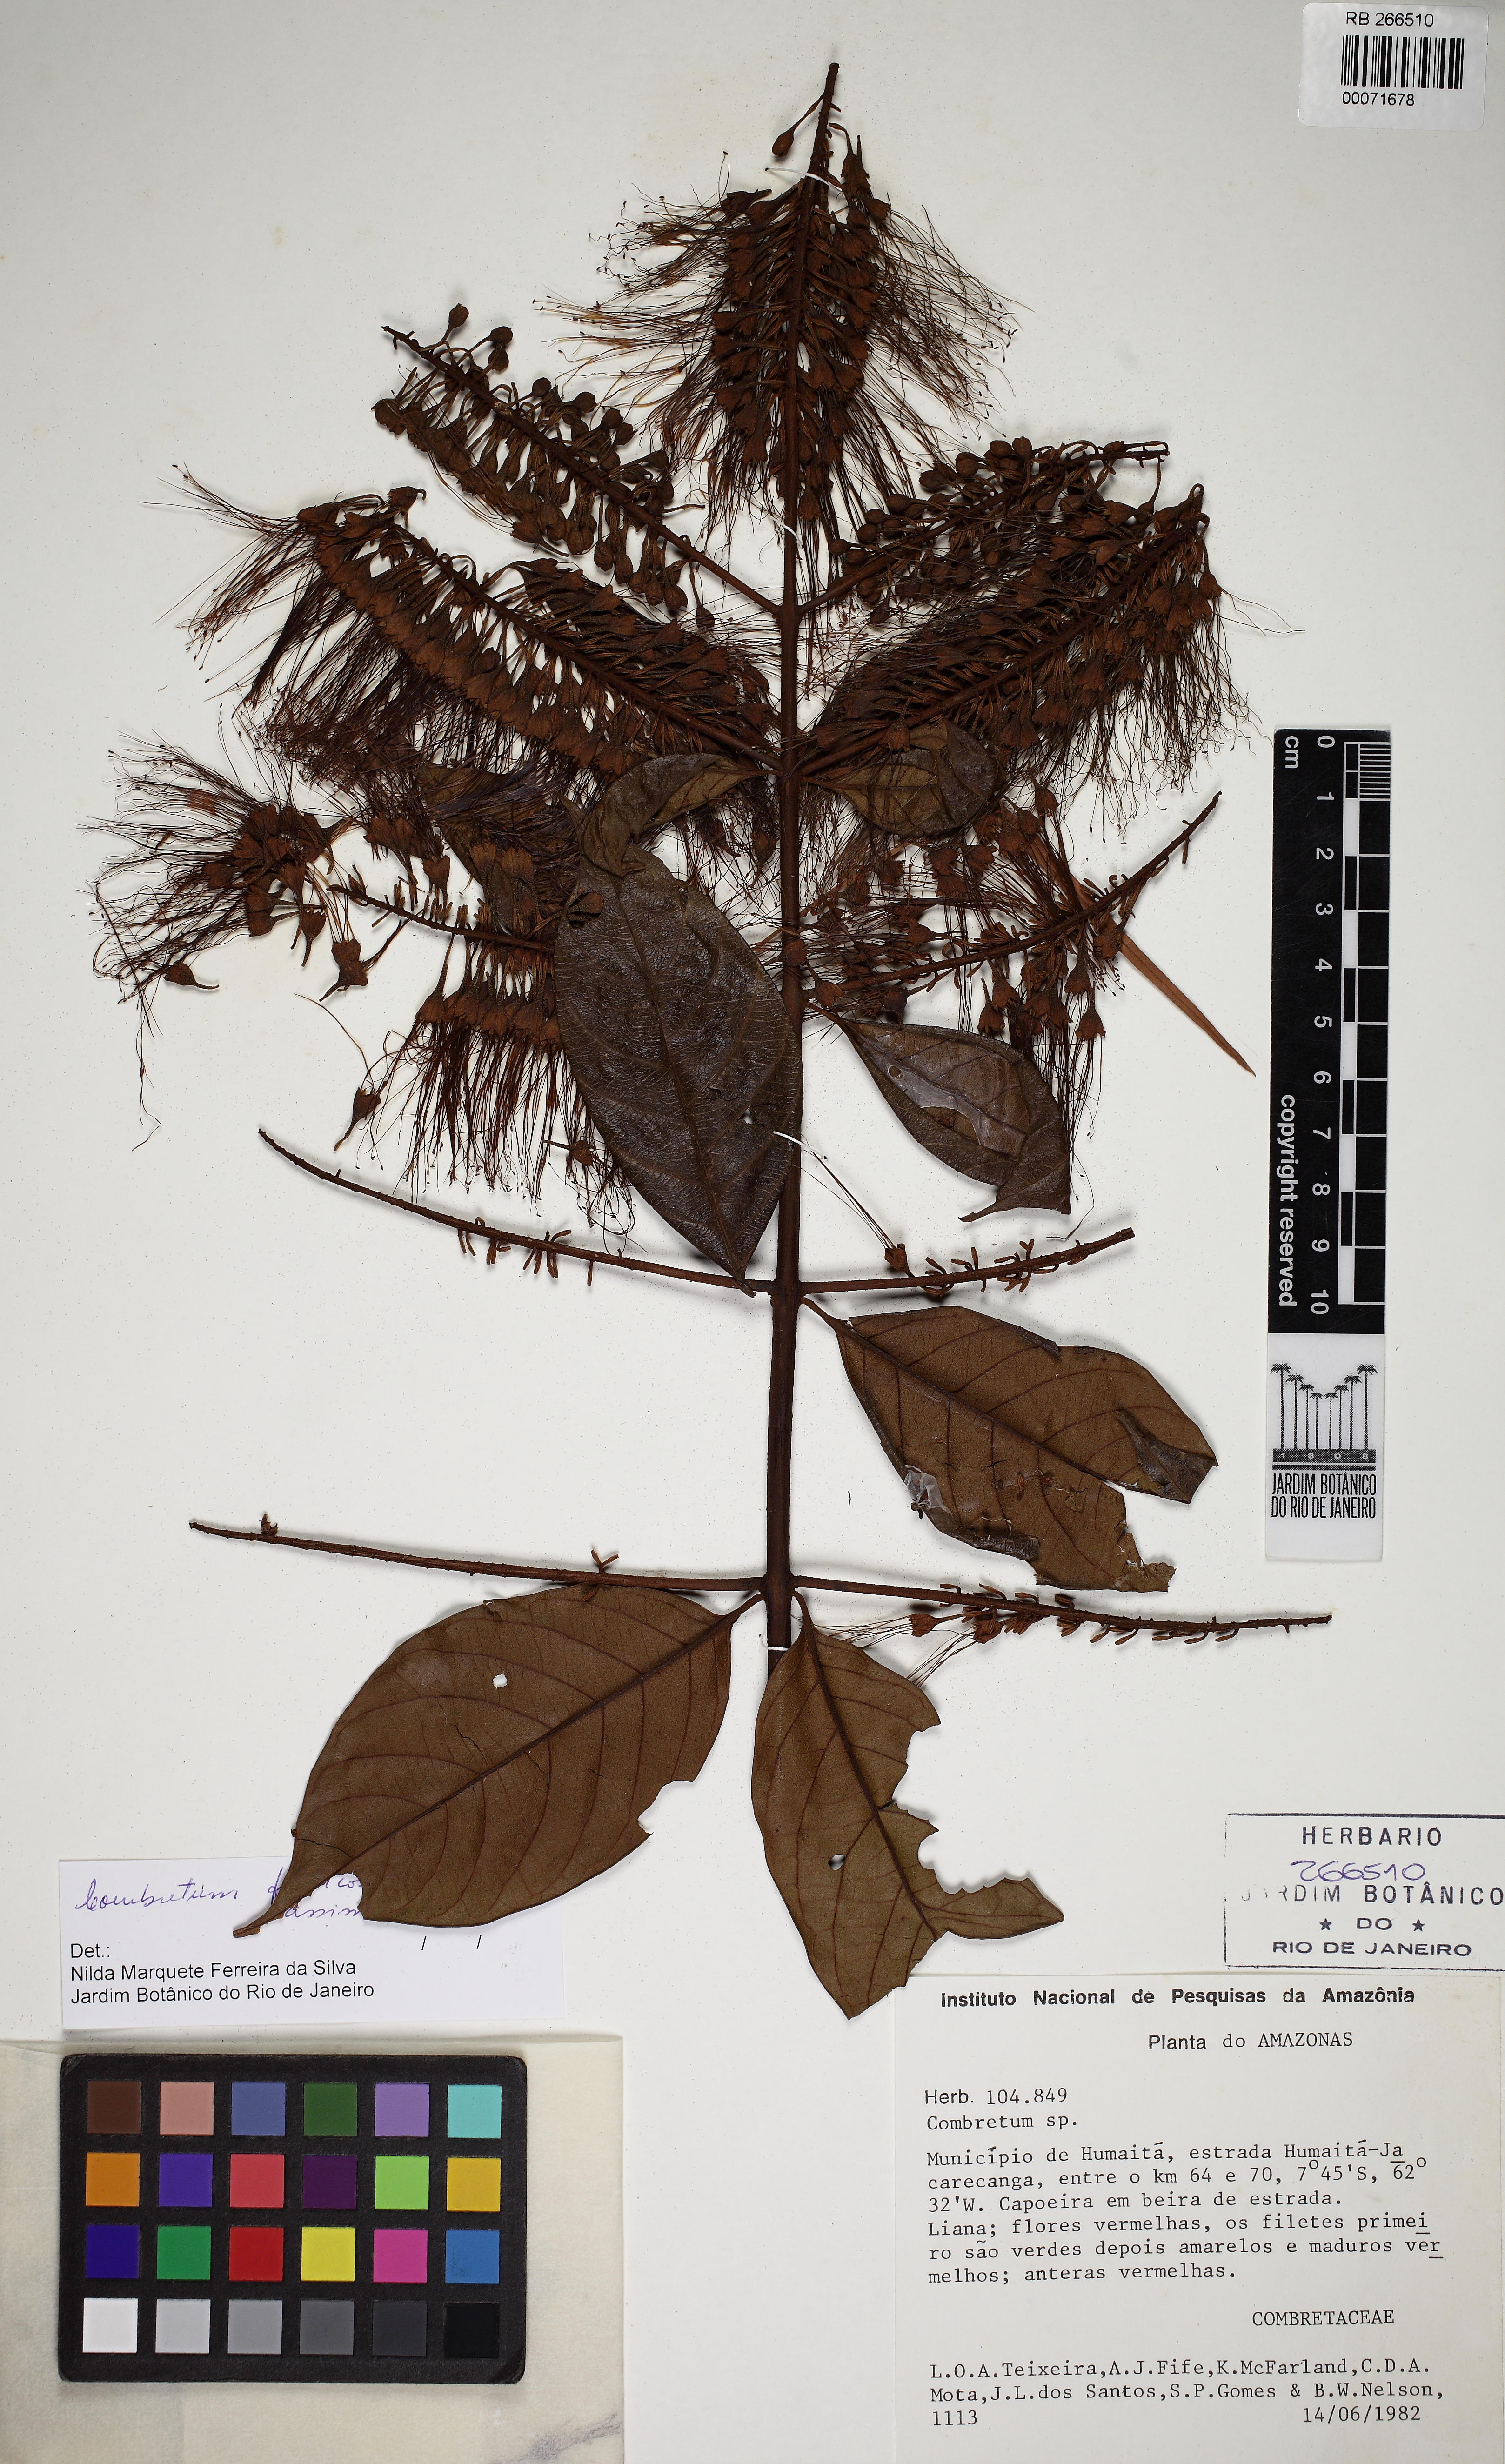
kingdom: Plantae
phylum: Tracheophyta
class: Magnoliopsida
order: Myrtales
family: Combretaceae
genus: Combretum
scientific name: Combretum
